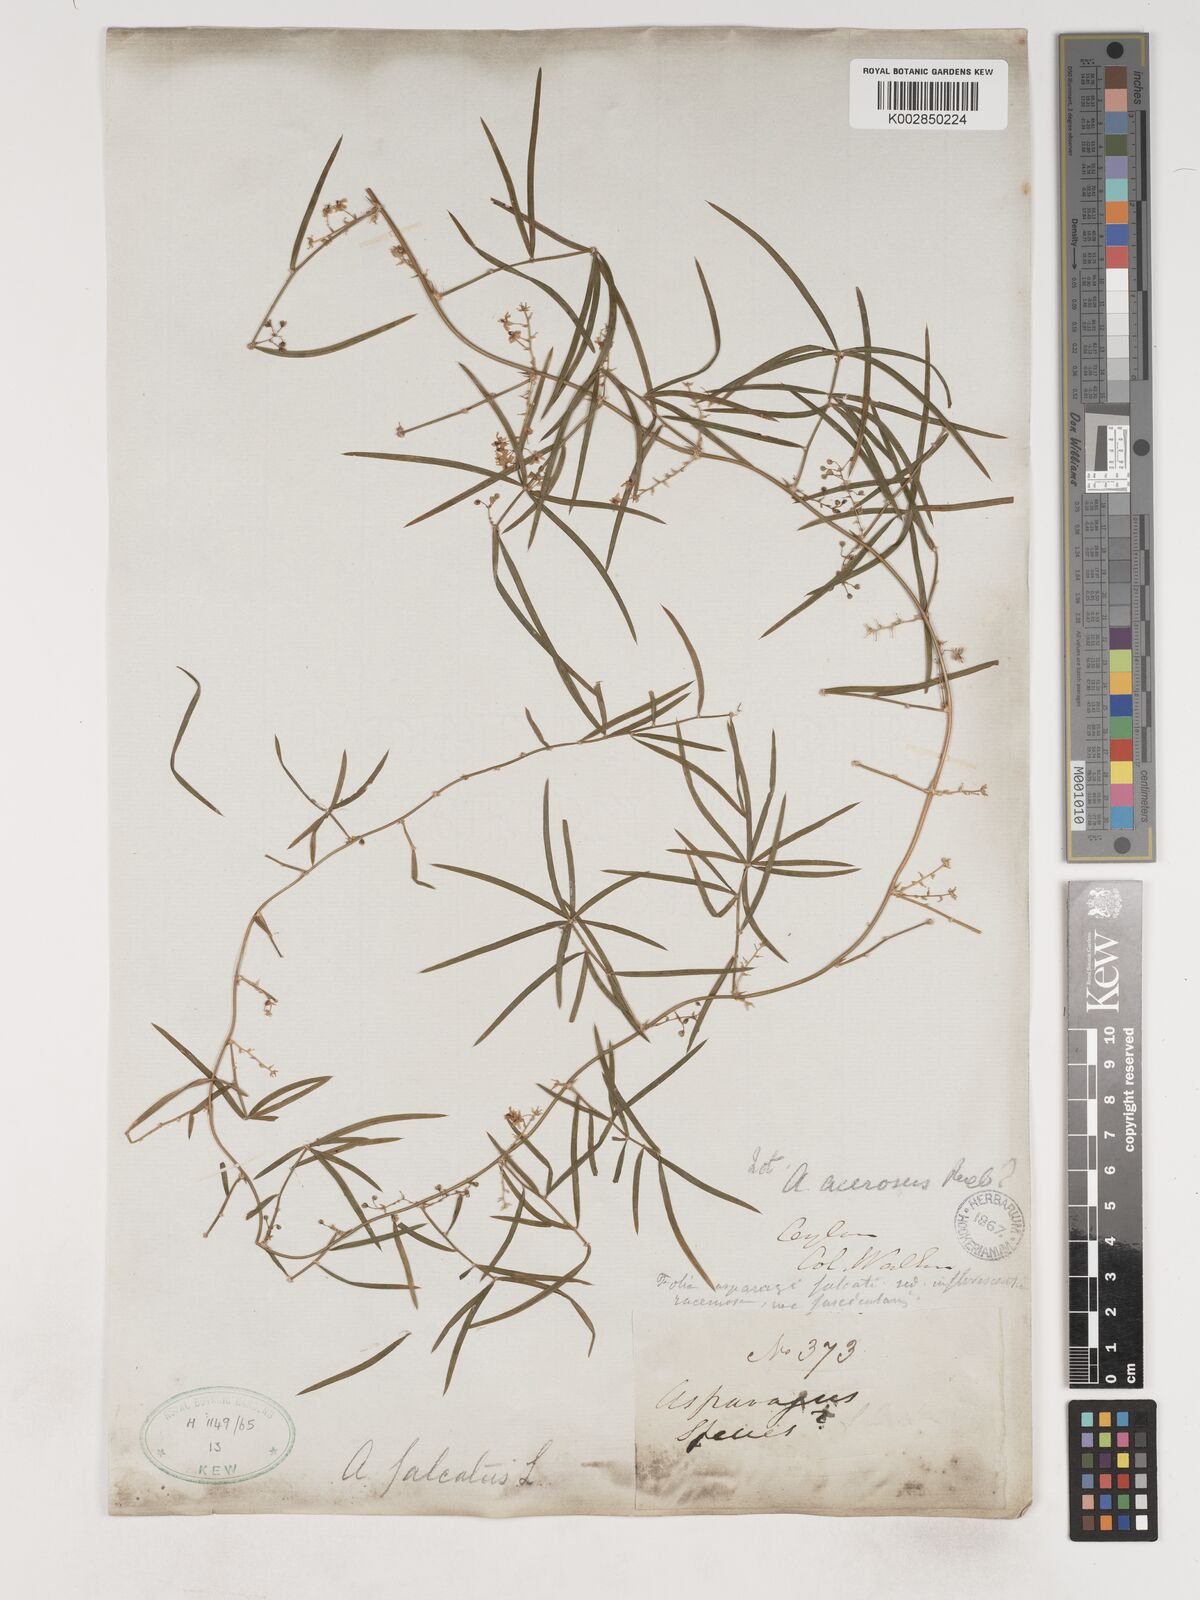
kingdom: Plantae
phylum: Tracheophyta
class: Liliopsida
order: Asparagales
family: Asparagaceae
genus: Asparagus
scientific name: Asparagus falcatus
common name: Asparagus
